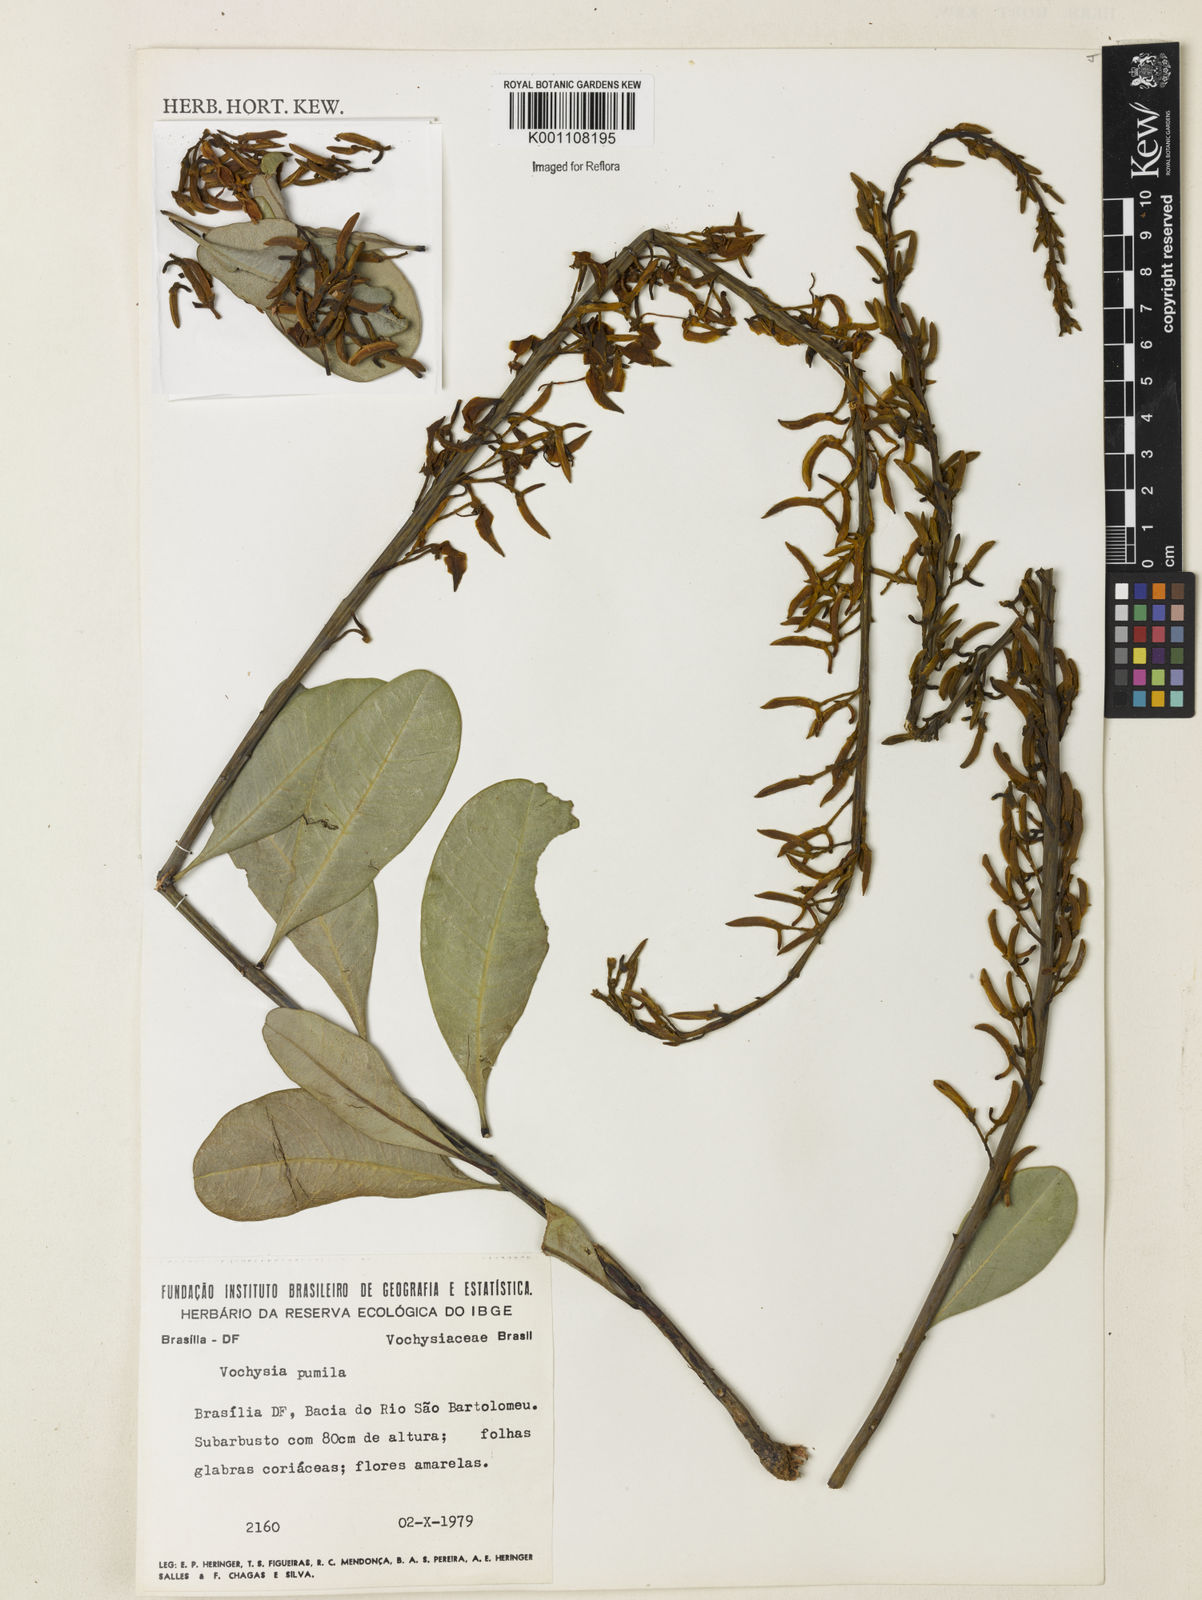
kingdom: Plantae
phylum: Tracheophyta
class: Magnoliopsida
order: Myrtales
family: Vochysiaceae
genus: Vochysia
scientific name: Vochysia pumila
